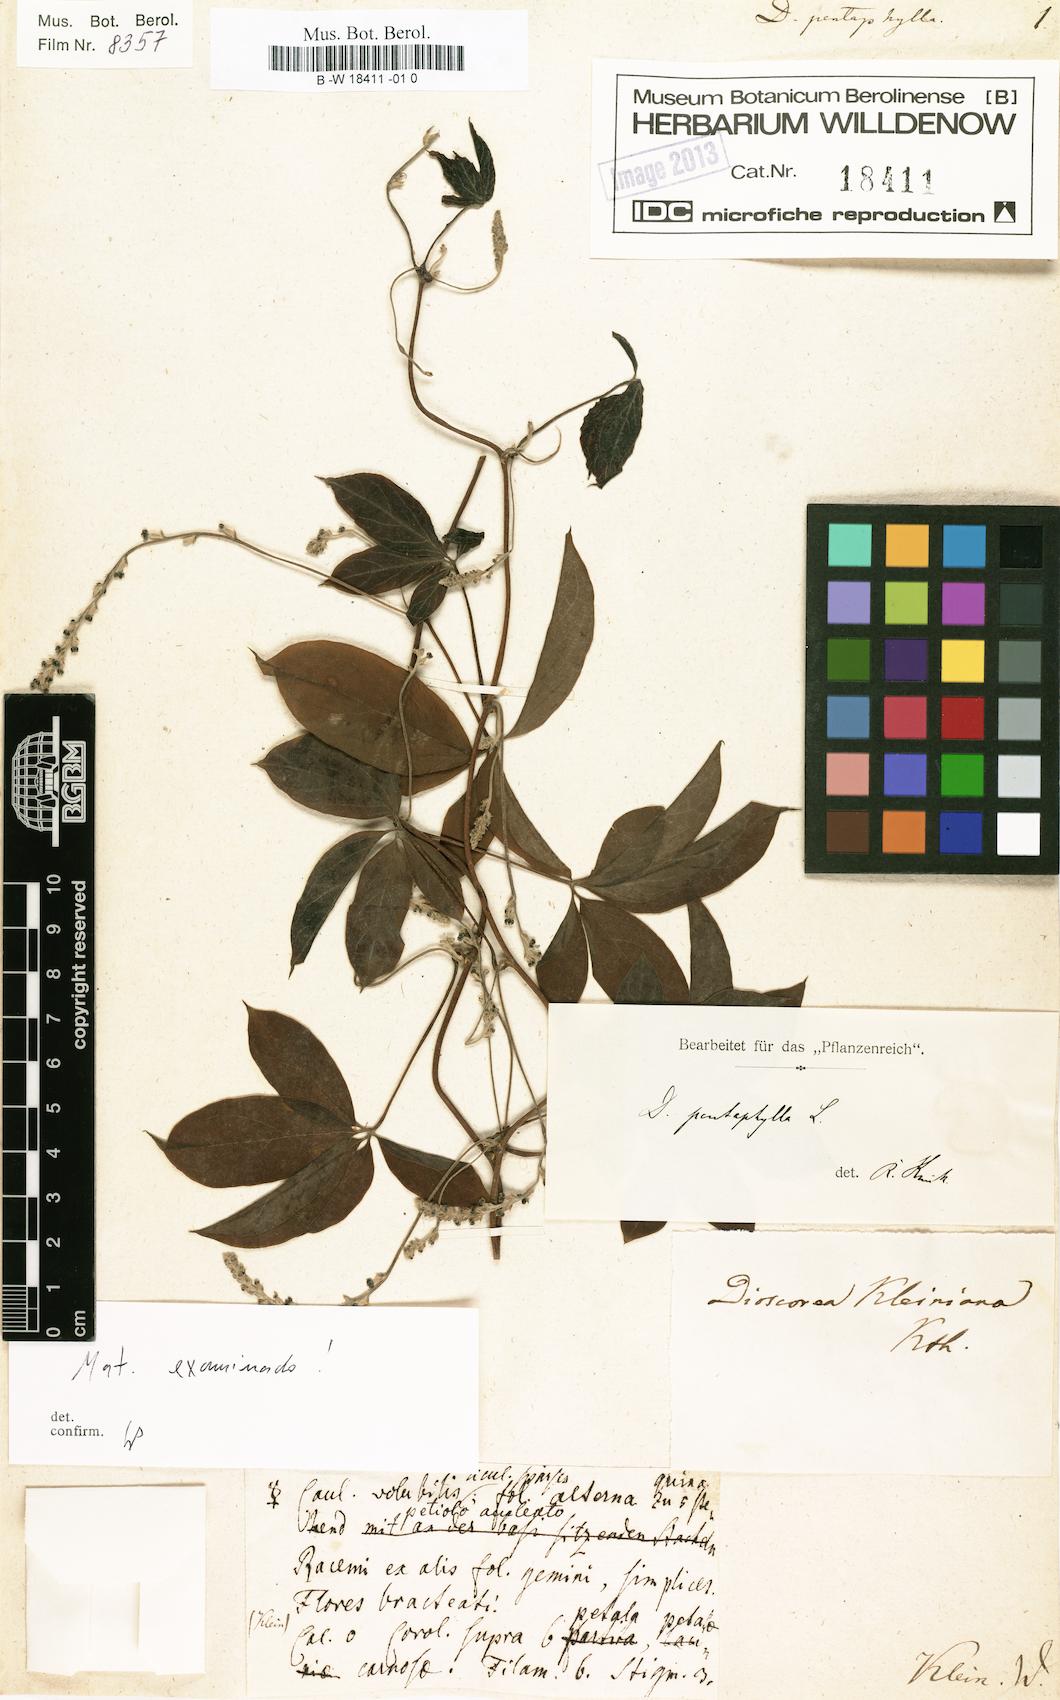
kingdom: Plantae
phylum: Tracheophyta
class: Liliopsida
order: Dioscoreales
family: Dioscoreaceae
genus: Dioscorea
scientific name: Dioscorea pentaphylla
